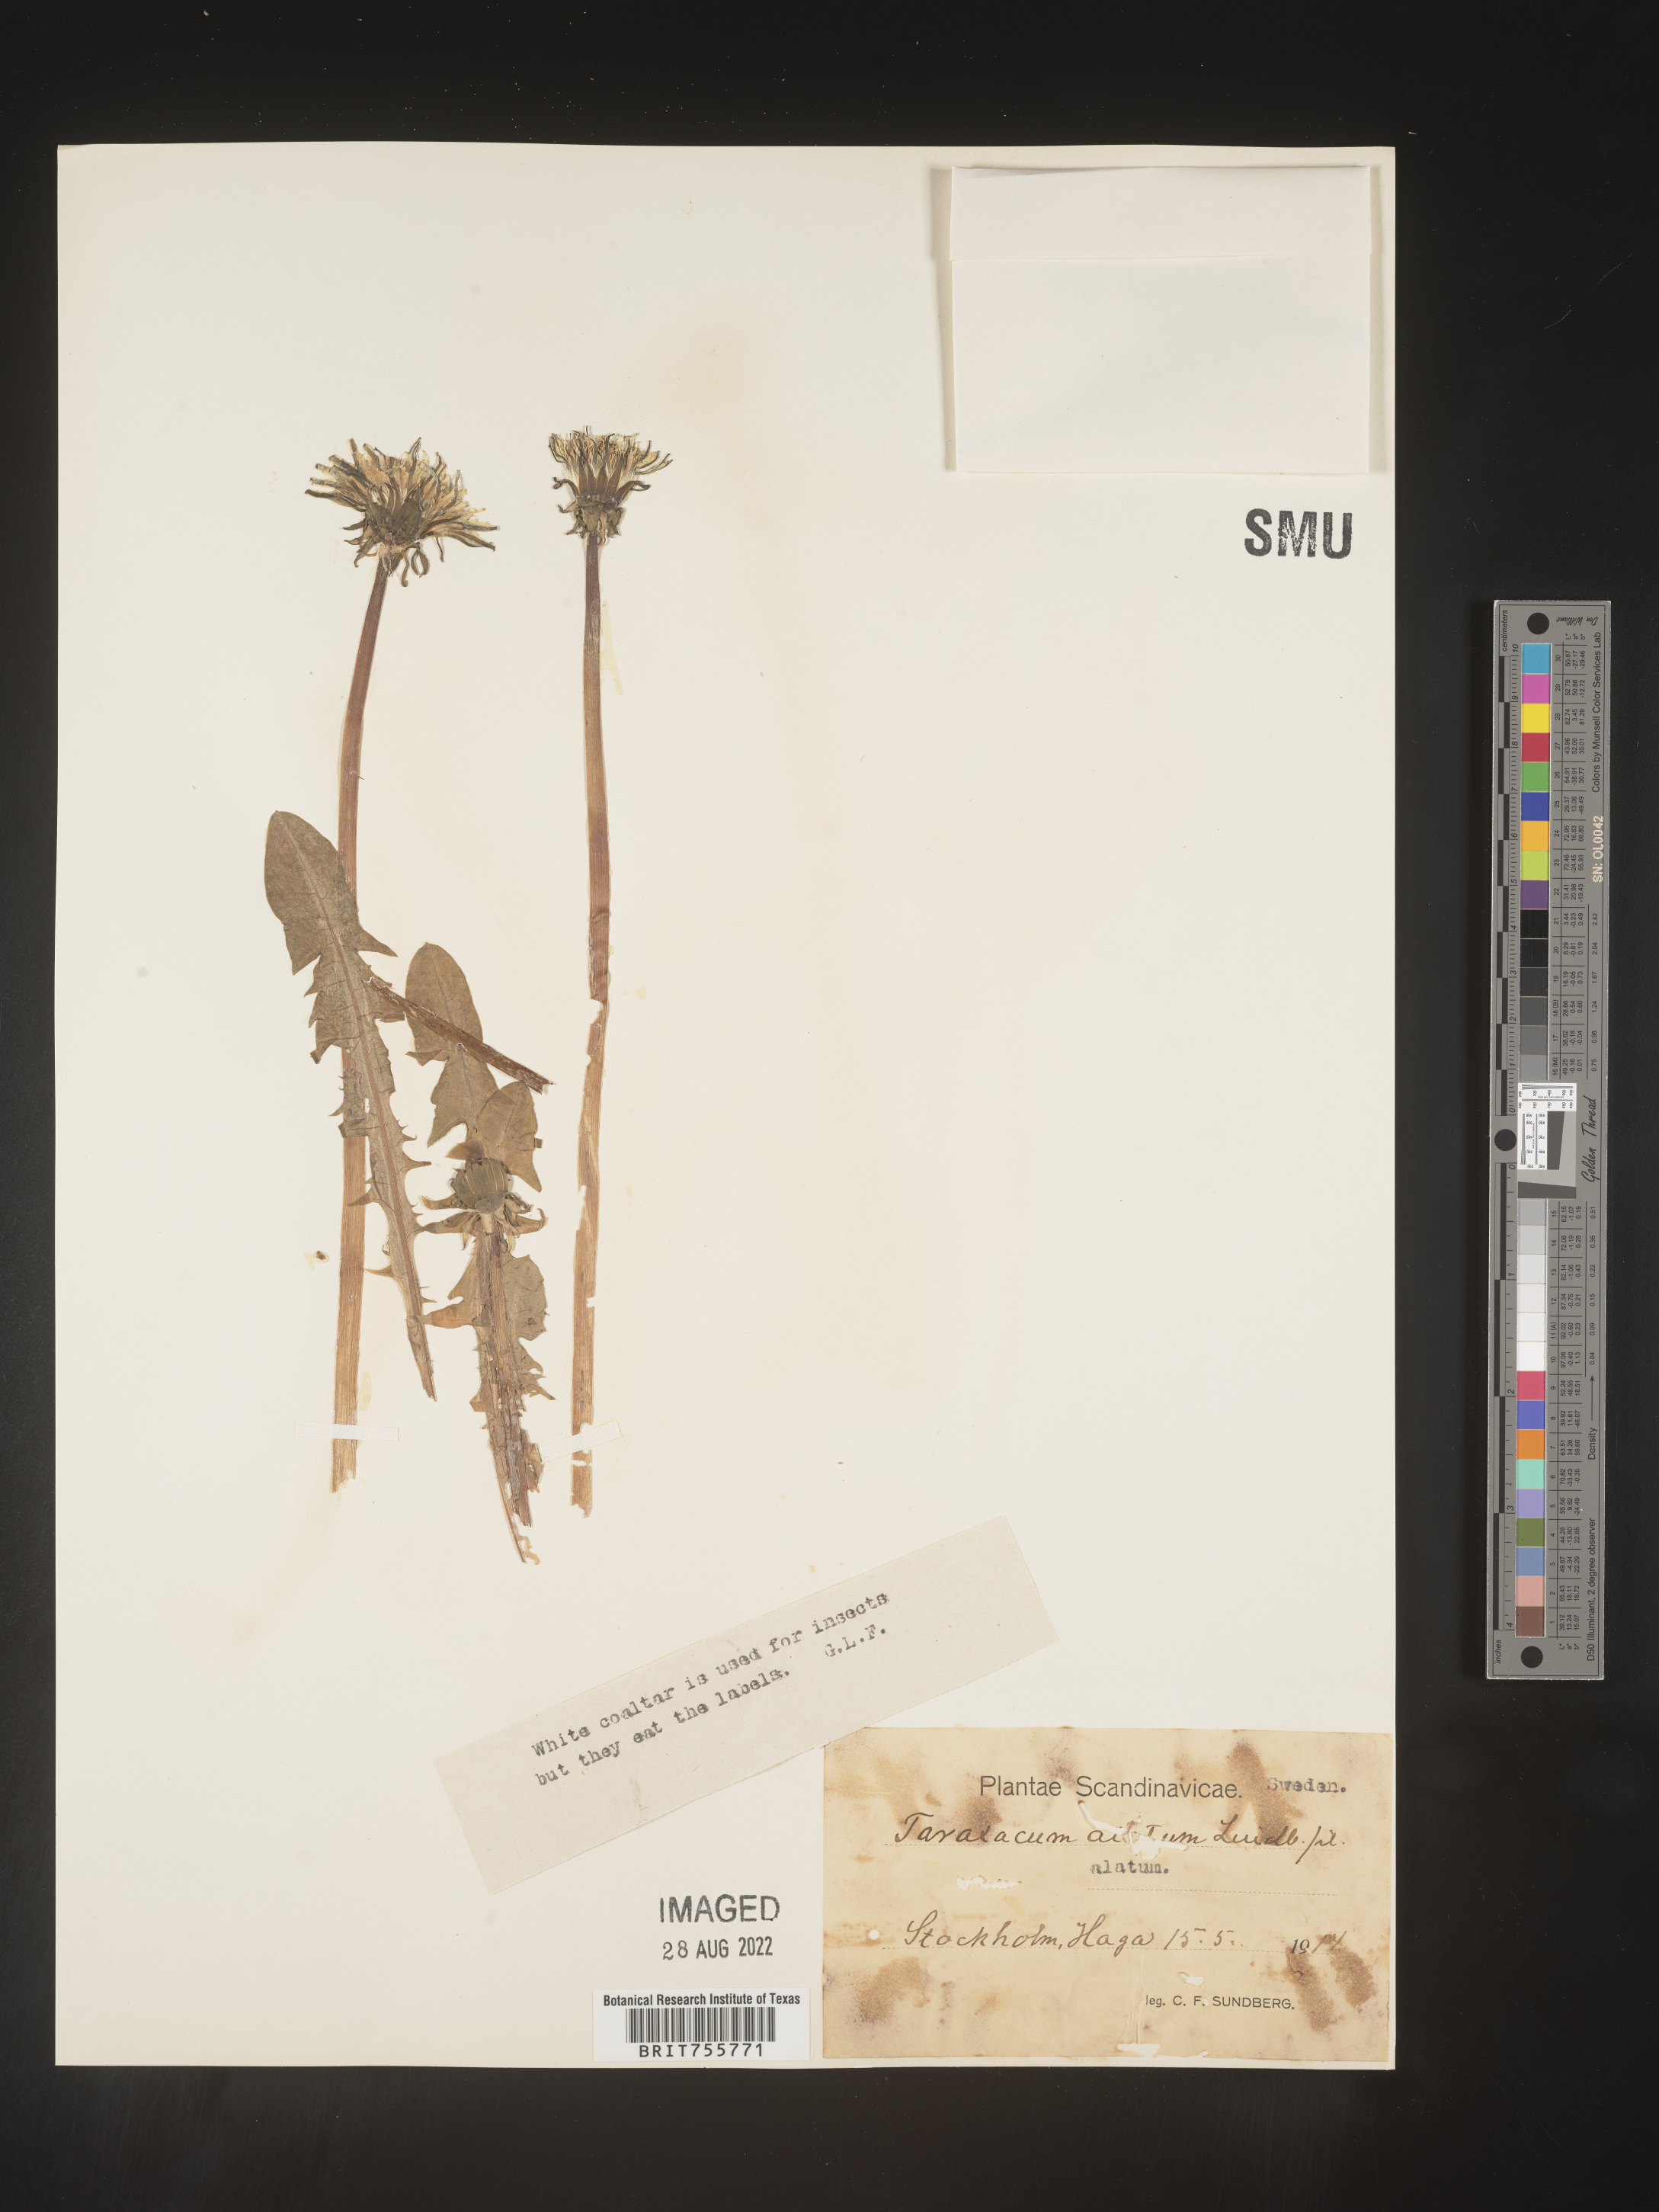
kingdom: Plantae
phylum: Tracheophyta
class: Magnoliopsida
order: Asterales
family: Asteraceae
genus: Taraxacum
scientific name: Taraxacum
